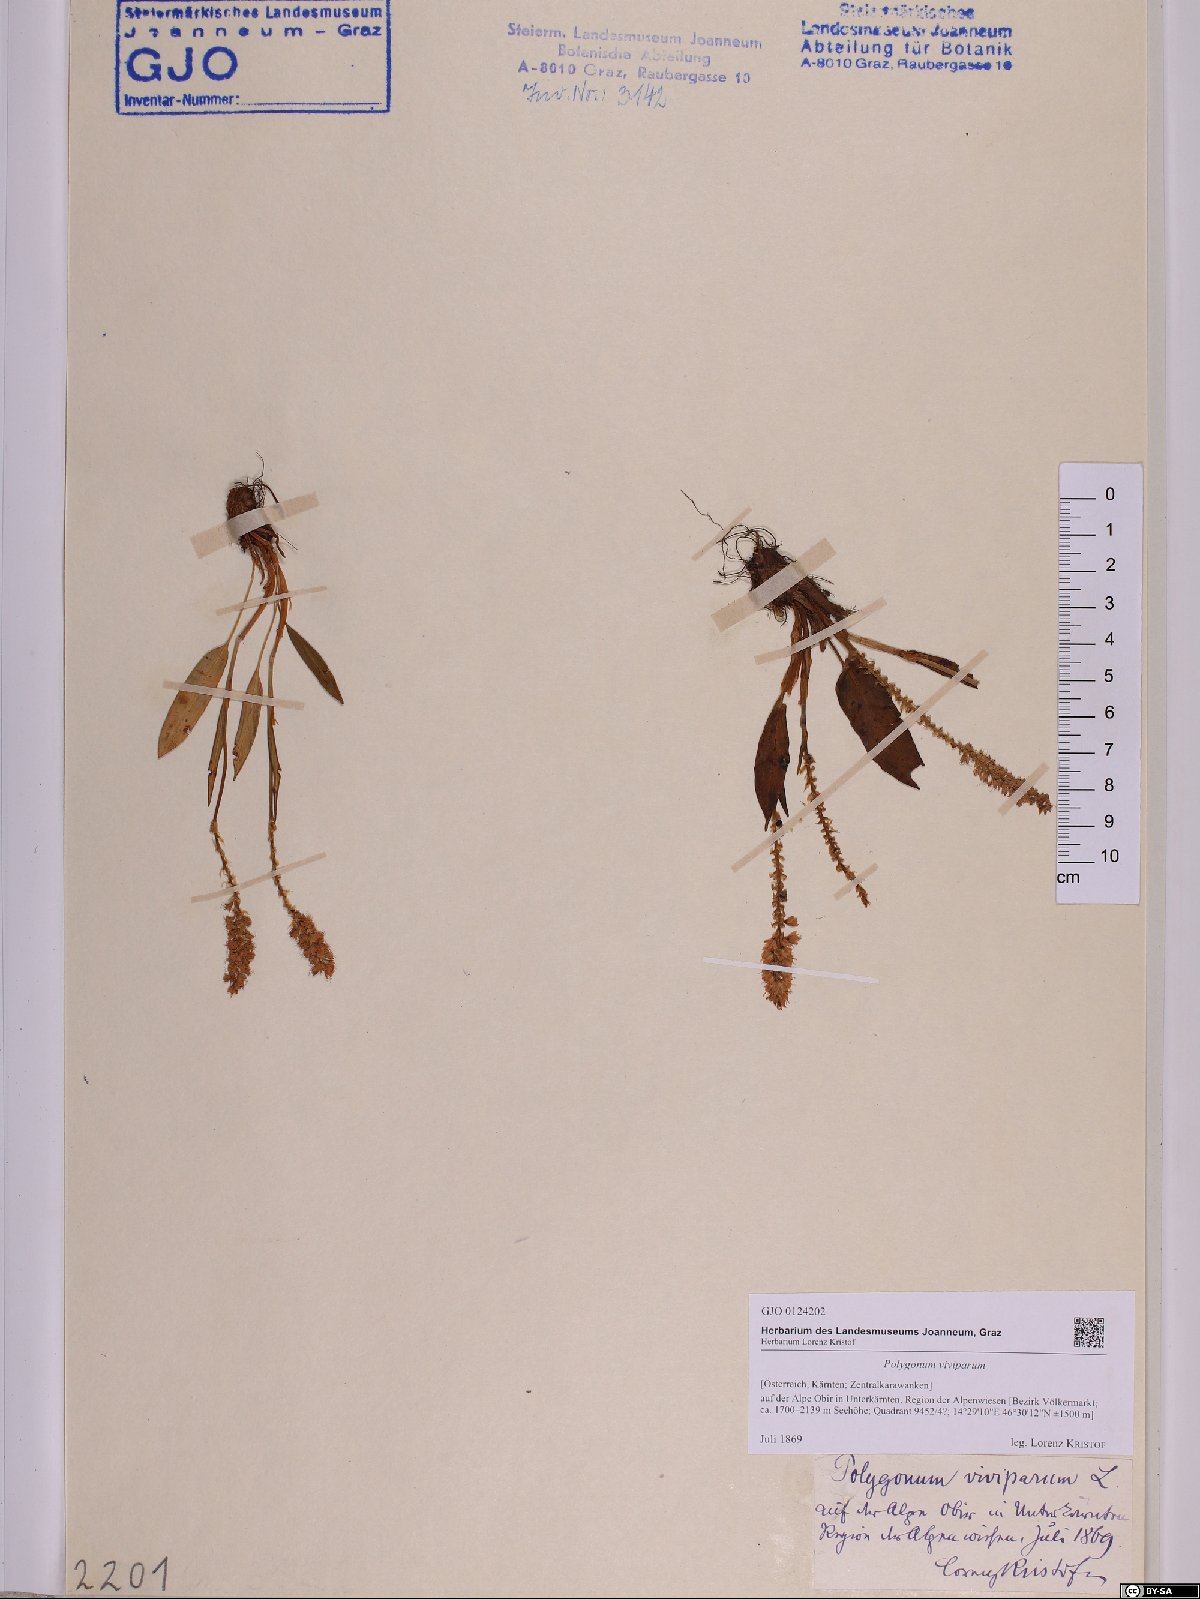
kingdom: Plantae
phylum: Tracheophyta
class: Magnoliopsida
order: Caryophyllales
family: Polygonaceae
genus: Bistorta
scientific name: Bistorta vivipara
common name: Alpine bistort
